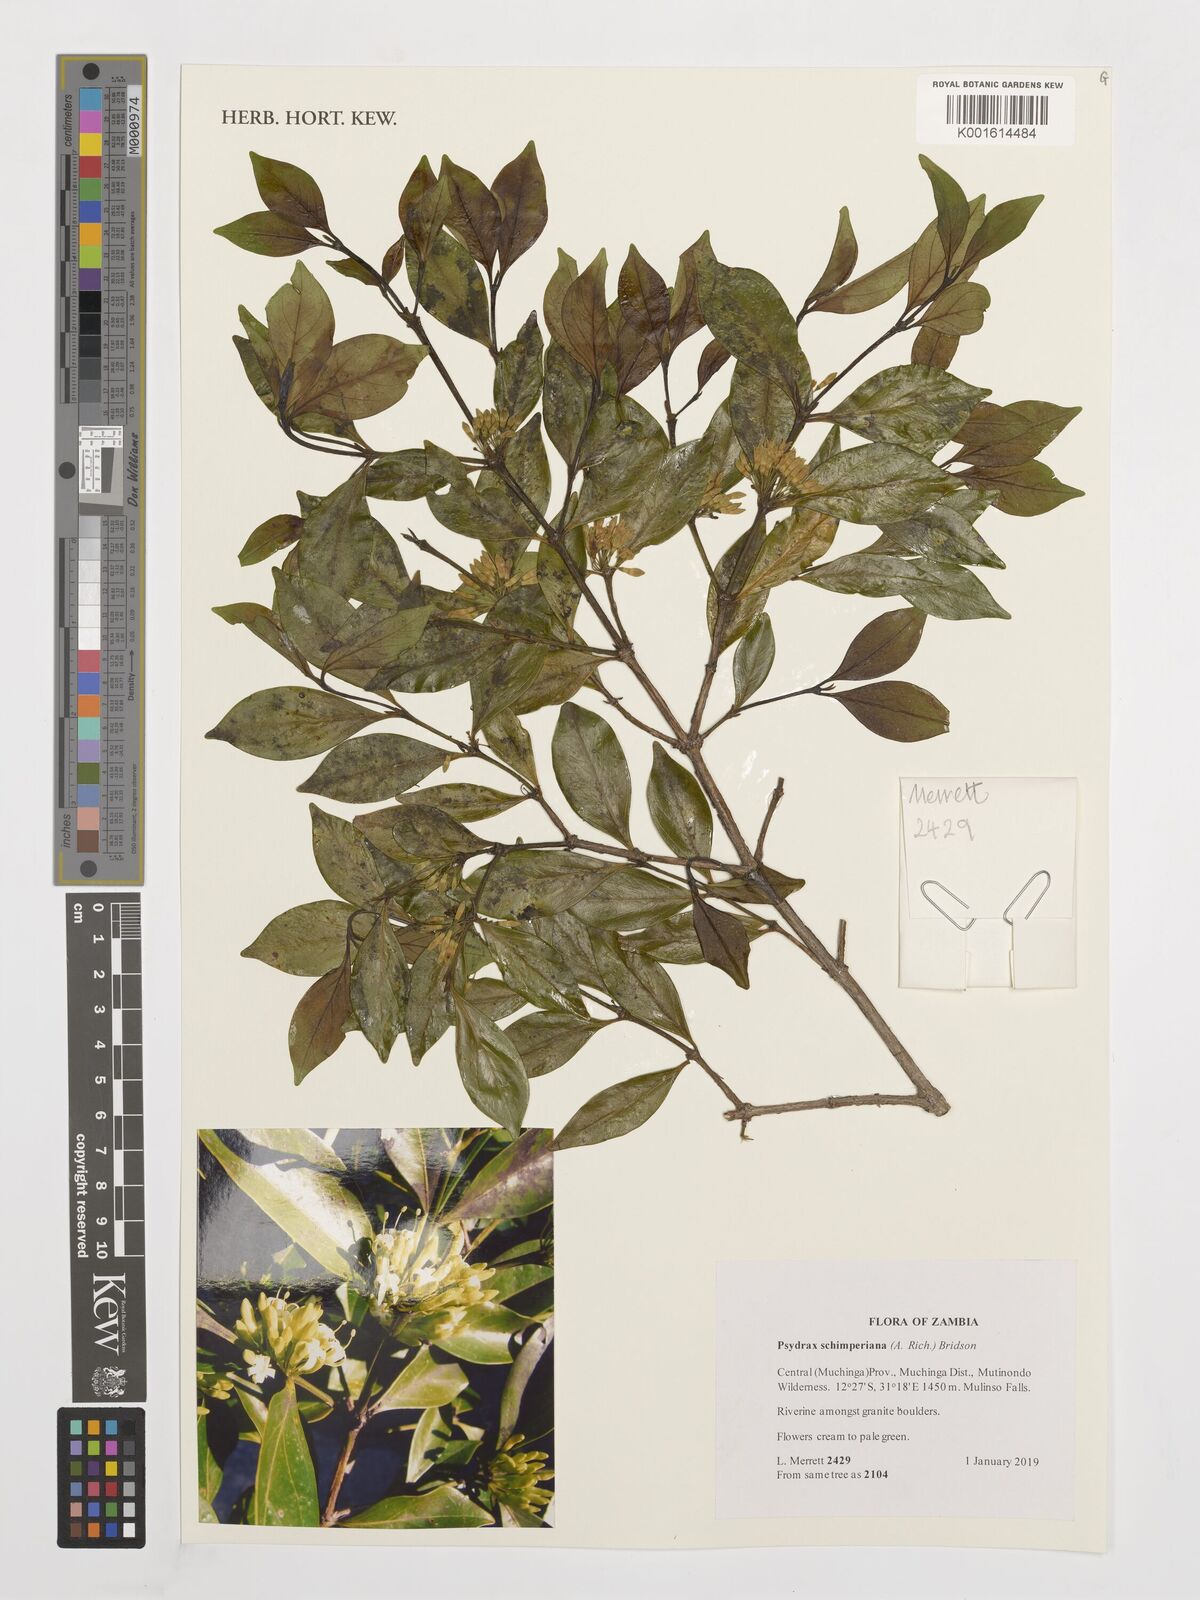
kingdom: Plantae
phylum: Tracheophyta
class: Magnoliopsida
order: Gentianales
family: Rubiaceae
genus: Psydrax
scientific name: Psydrax schimperianus
